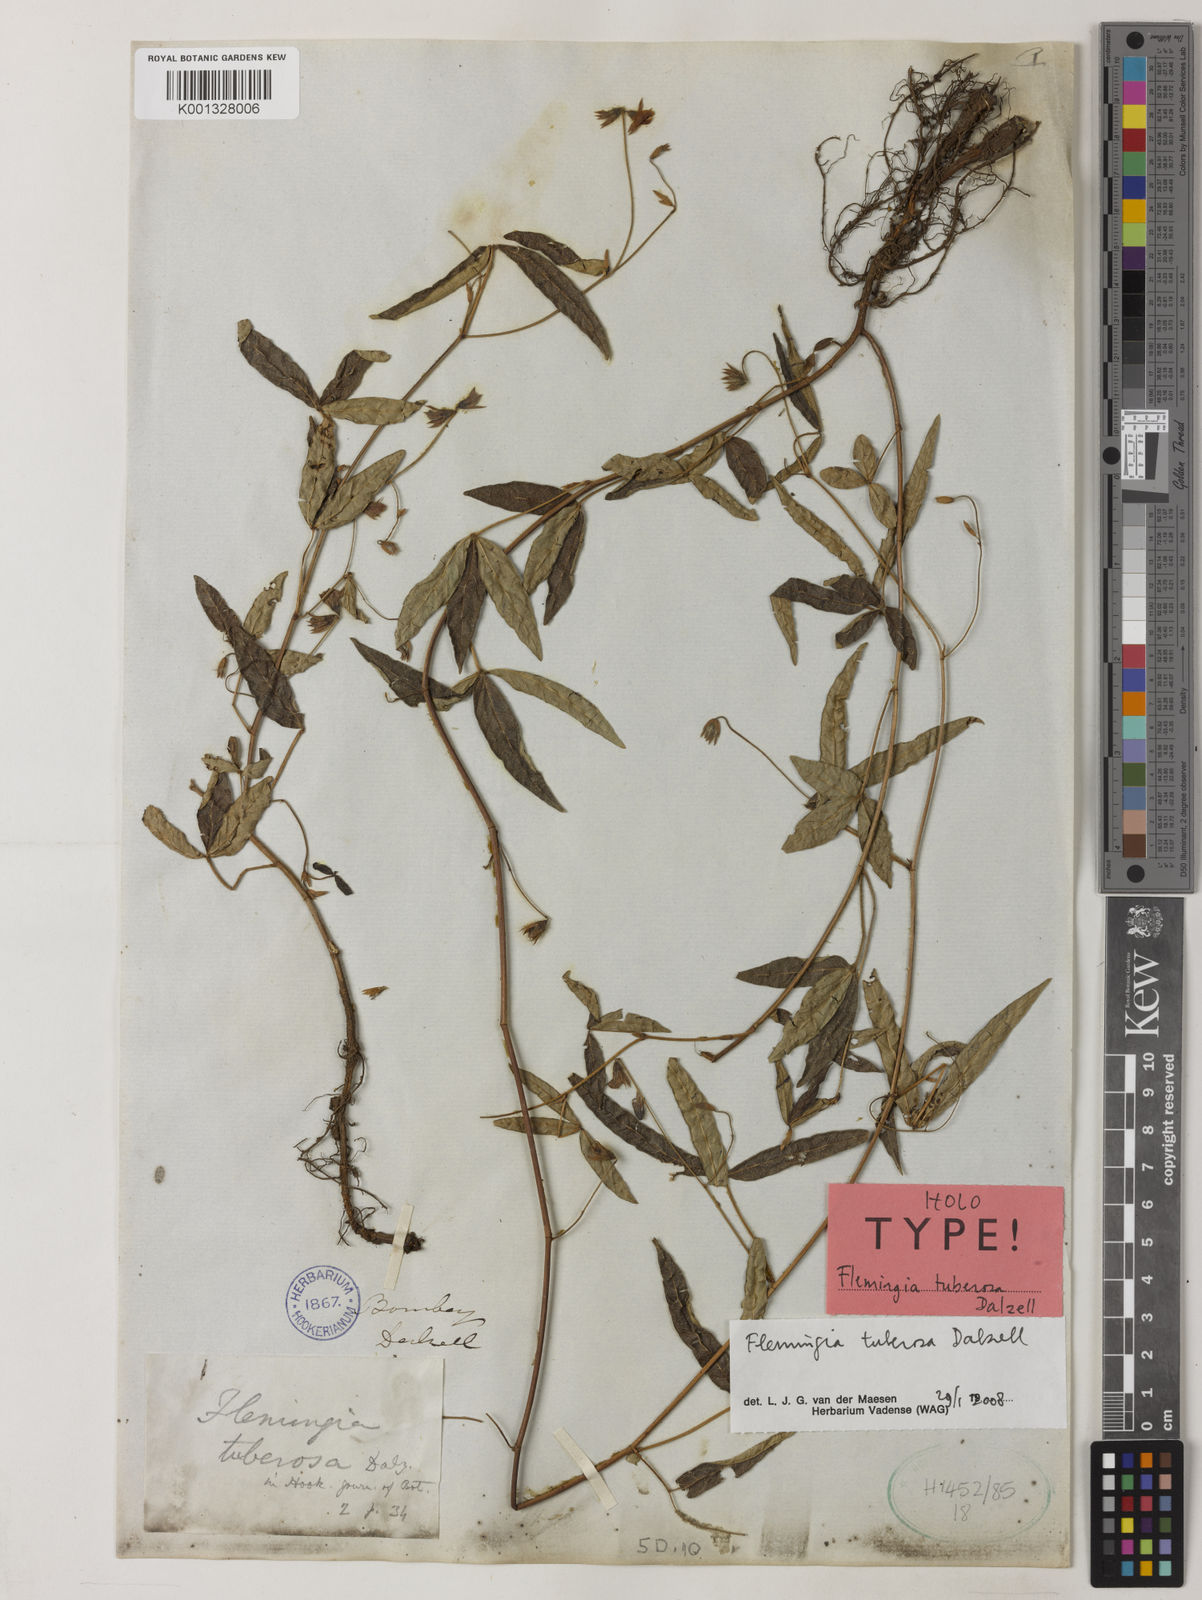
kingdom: Plantae
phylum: Tracheophyta
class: Magnoliopsida
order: Fabales
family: Fabaceae
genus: Flemingia
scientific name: Flemingia tuberosa
